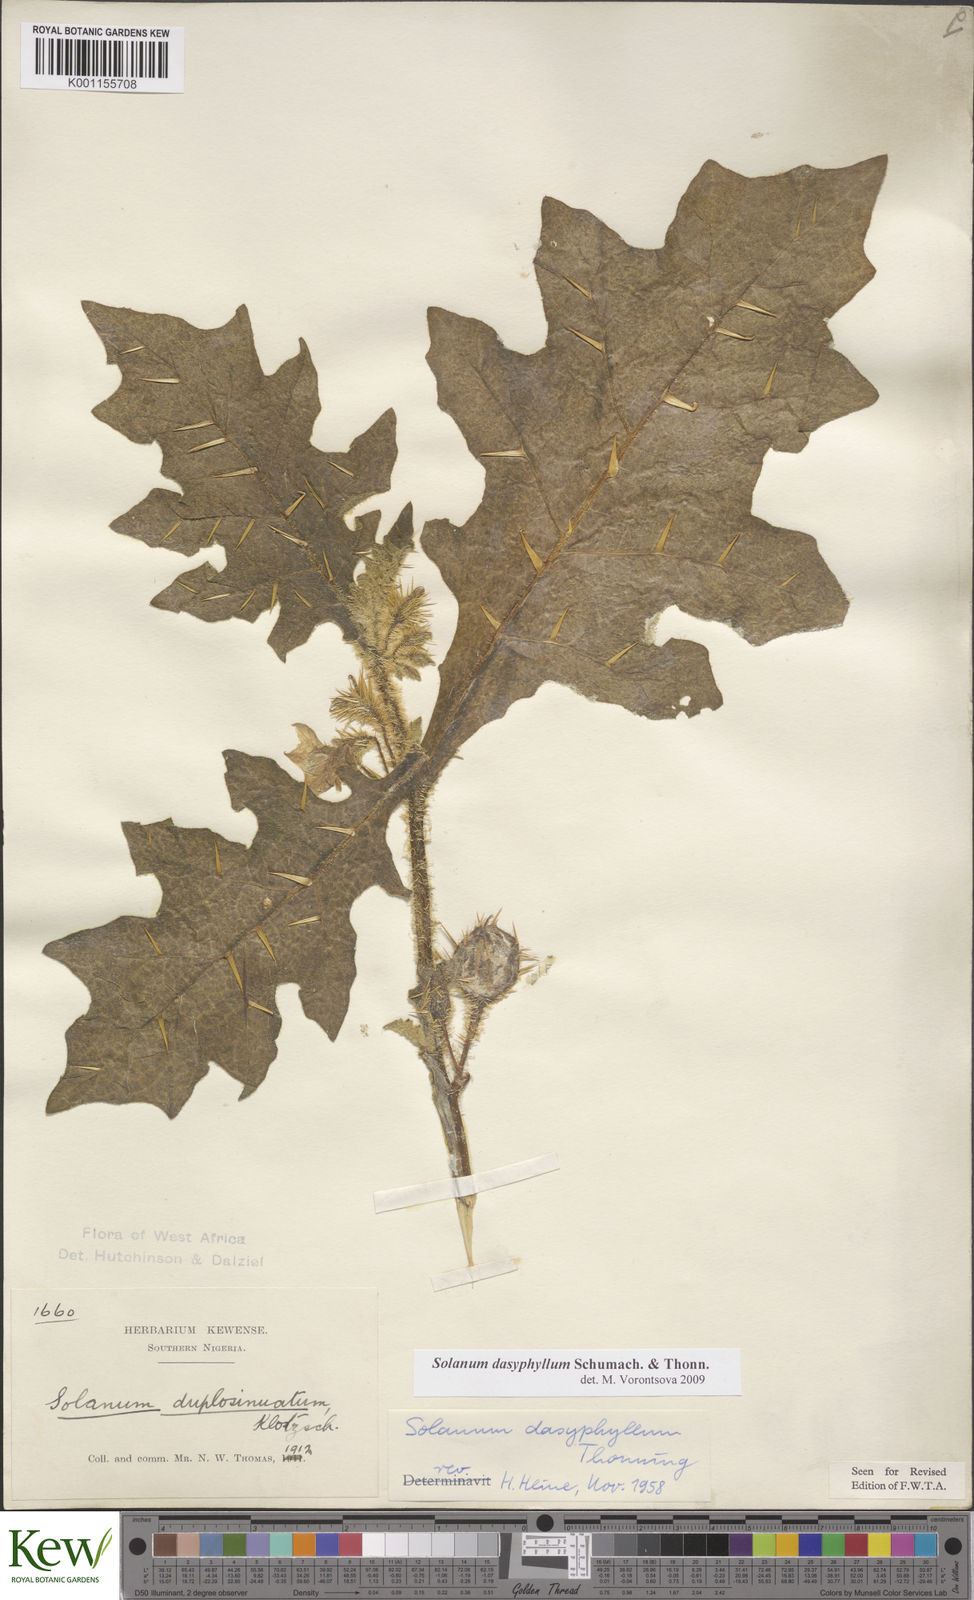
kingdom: Plantae
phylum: Tracheophyta
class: Magnoliopsida
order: Solanales
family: Solanaceae
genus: Solanum
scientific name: Solanum dasyphyllum
